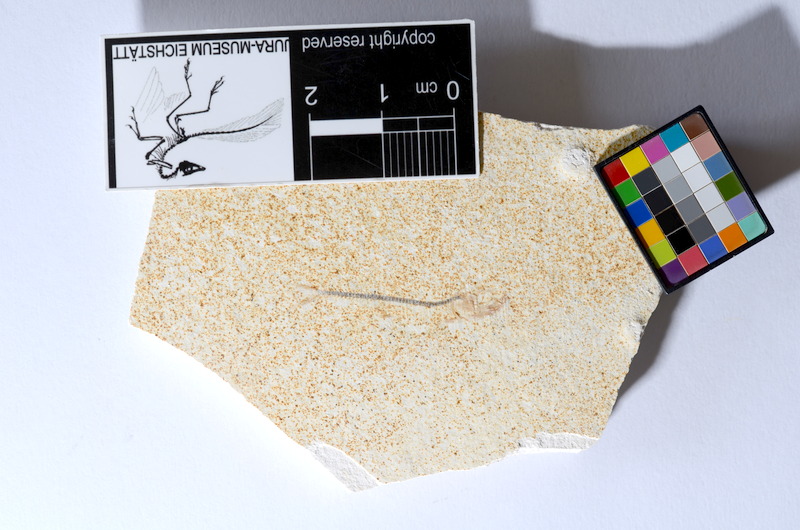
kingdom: Animalia
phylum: Chordata
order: Salmoniformes
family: Orthogonikleithridae
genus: Orthogonikleithrus
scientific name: Orthogonikleithrus hoelli
